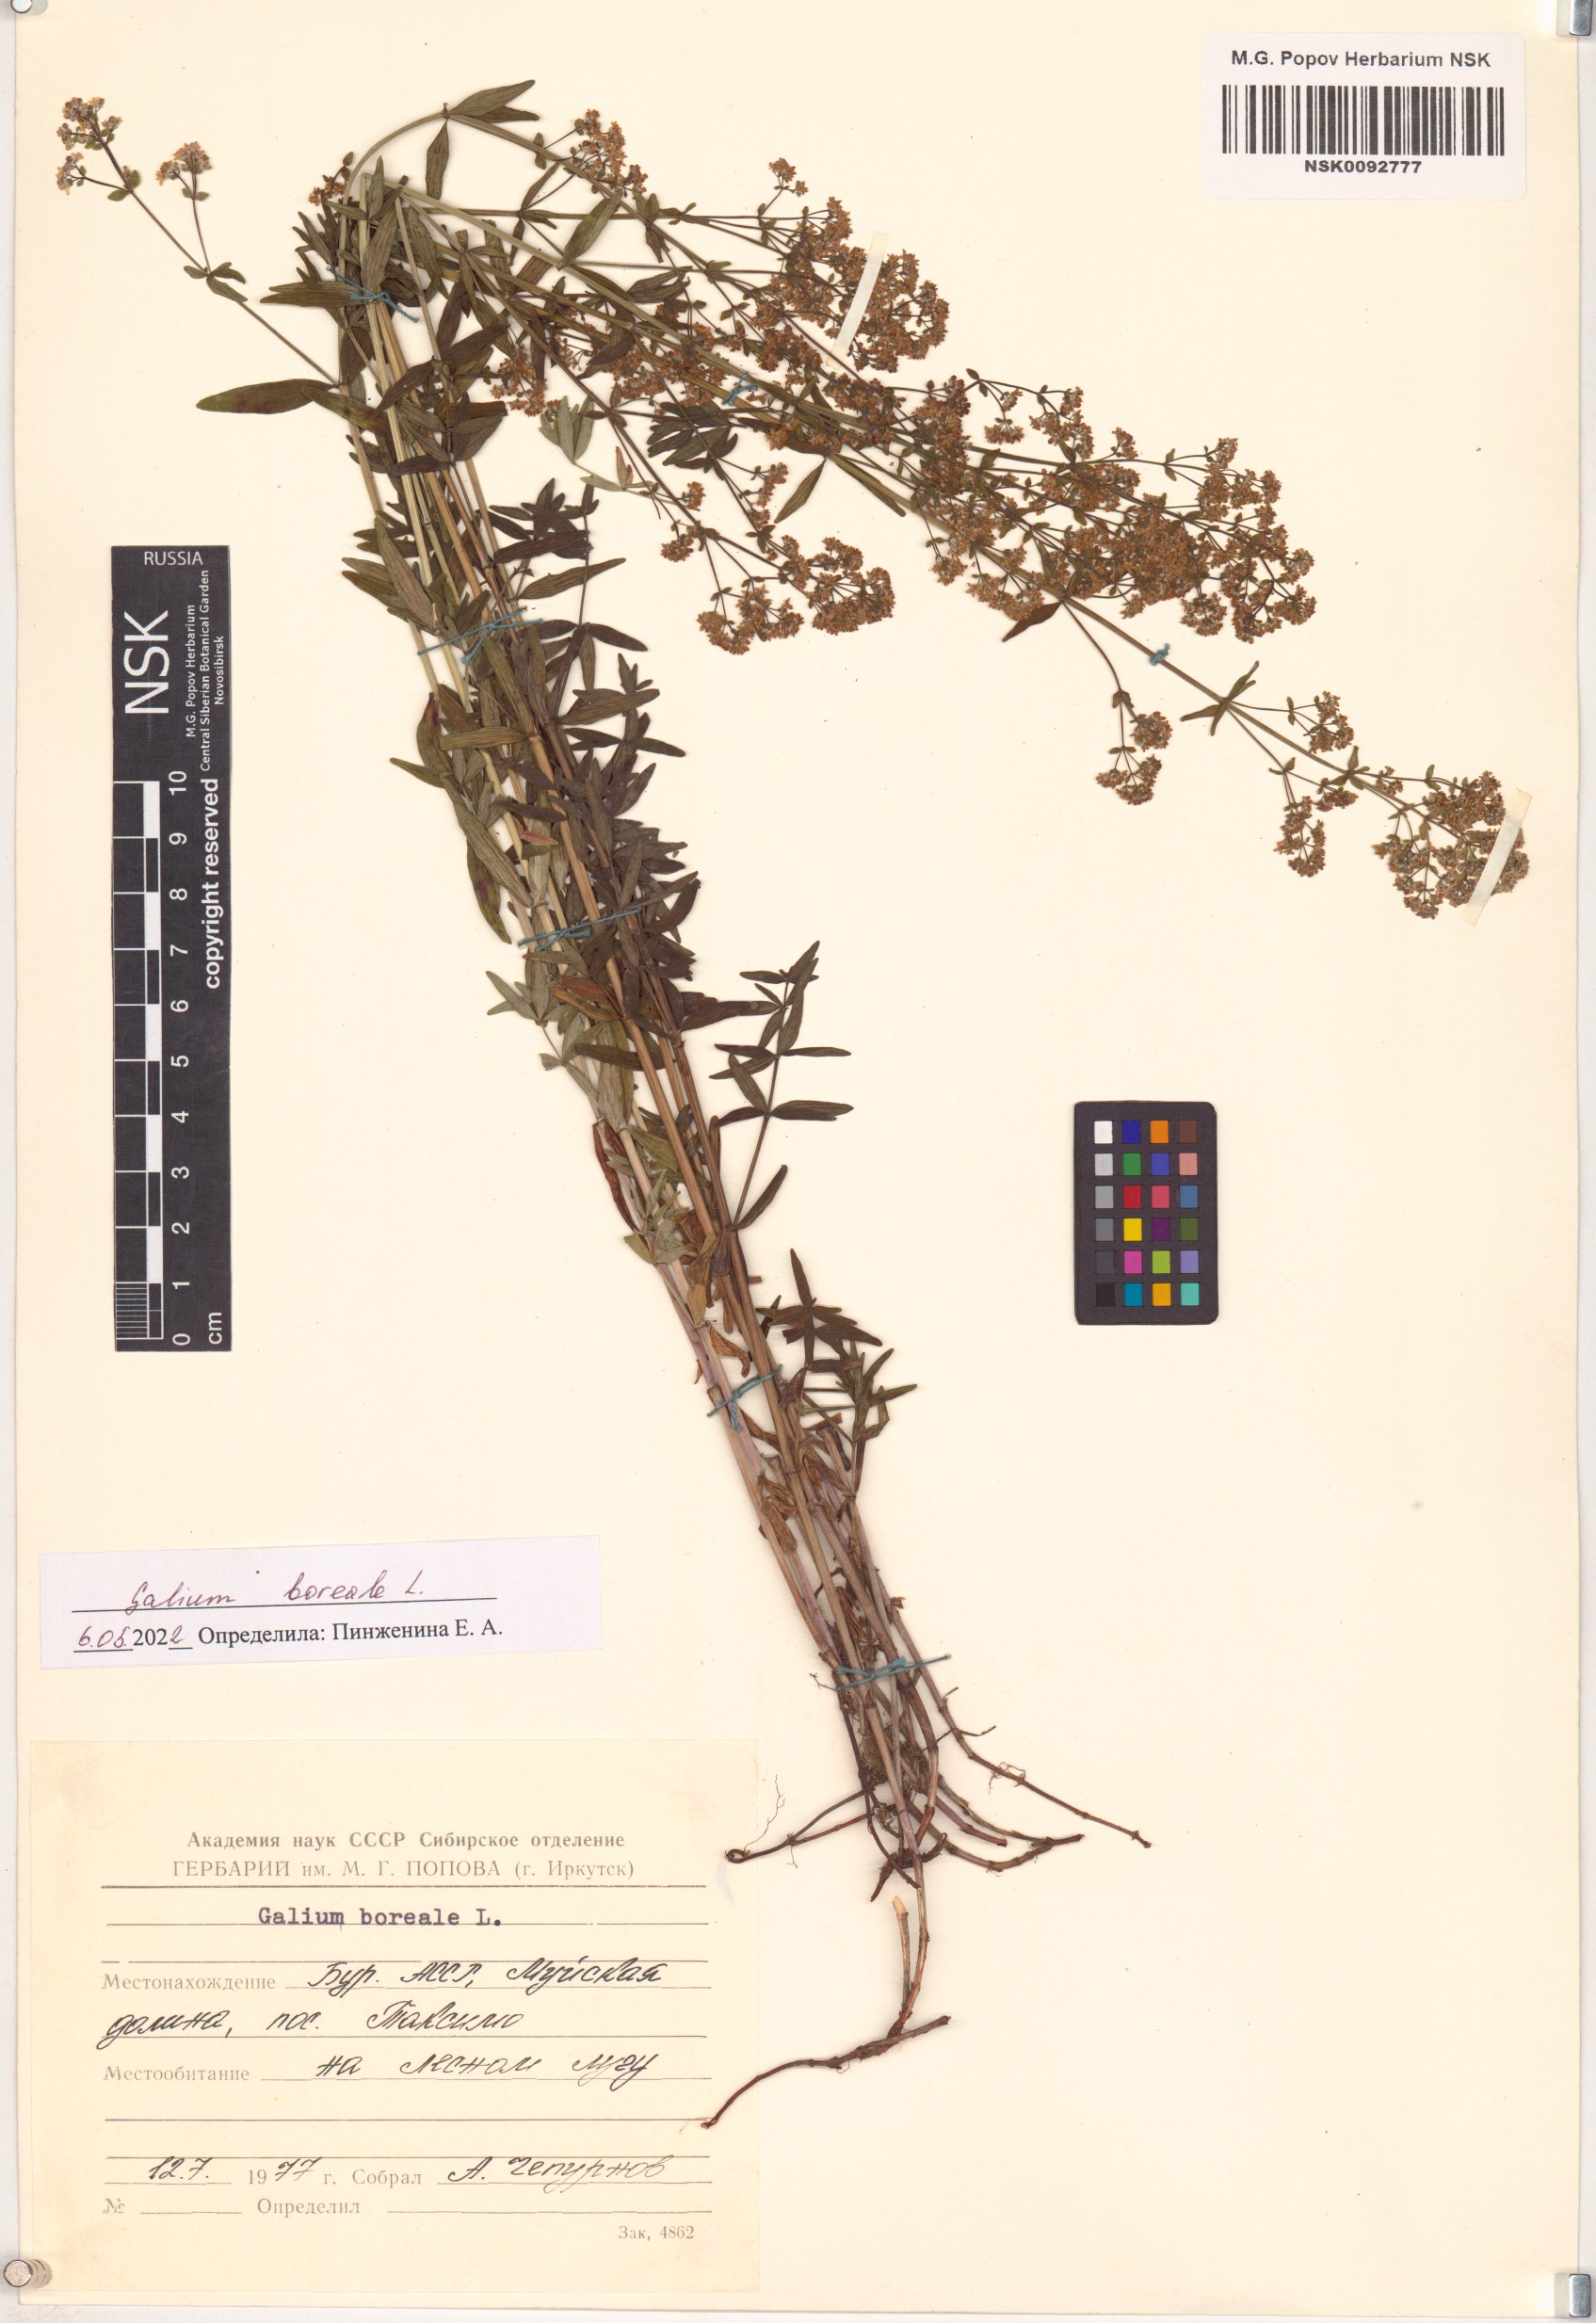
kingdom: Plantae
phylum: Tracheophyta
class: Magnoliopsida
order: Gentianales
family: Rubiaceae
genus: Galium
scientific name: Galium boreale
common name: Northern bedstraw
